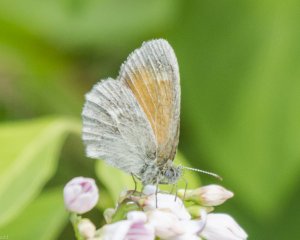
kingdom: Animalia
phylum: Arthropoda
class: Insecta
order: Lepidoptera
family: Nymphalidae
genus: Coenonympha
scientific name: Coenonympha tullia
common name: Large Heath
